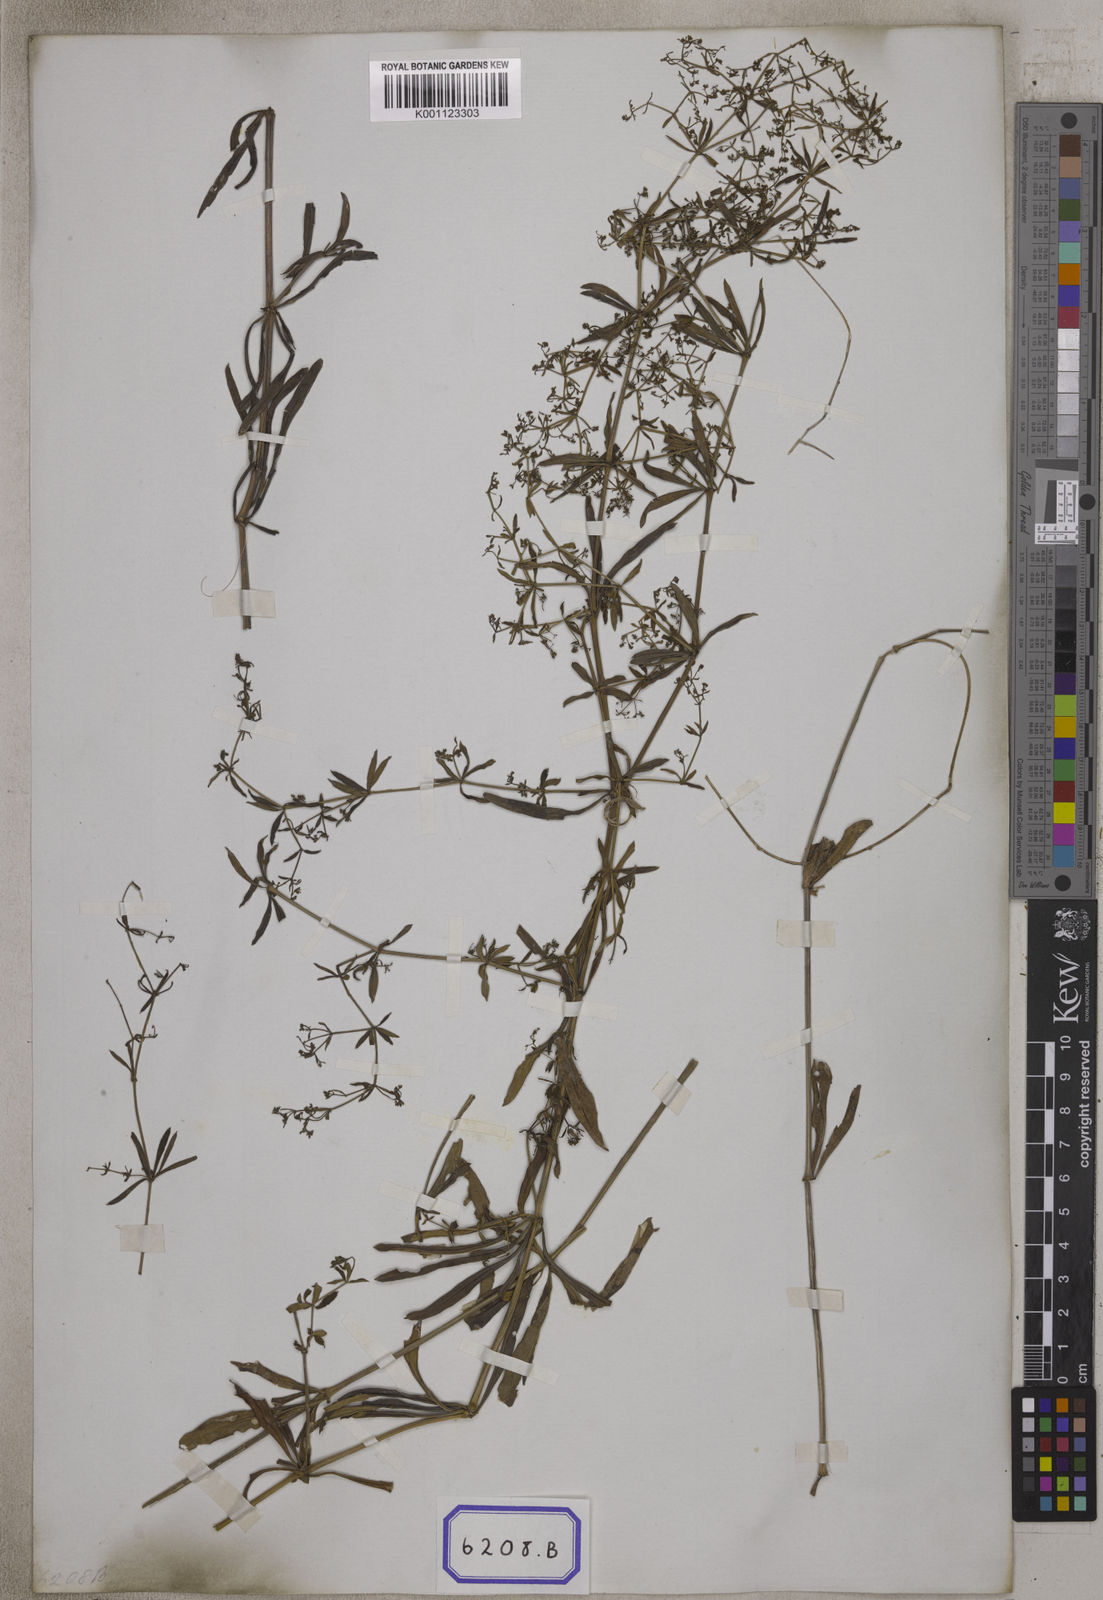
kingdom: Plantae
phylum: Tracheophyta
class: Magnoliopsida
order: Gentianales
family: Rubiaceae
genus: Rubia
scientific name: Rubia alata
